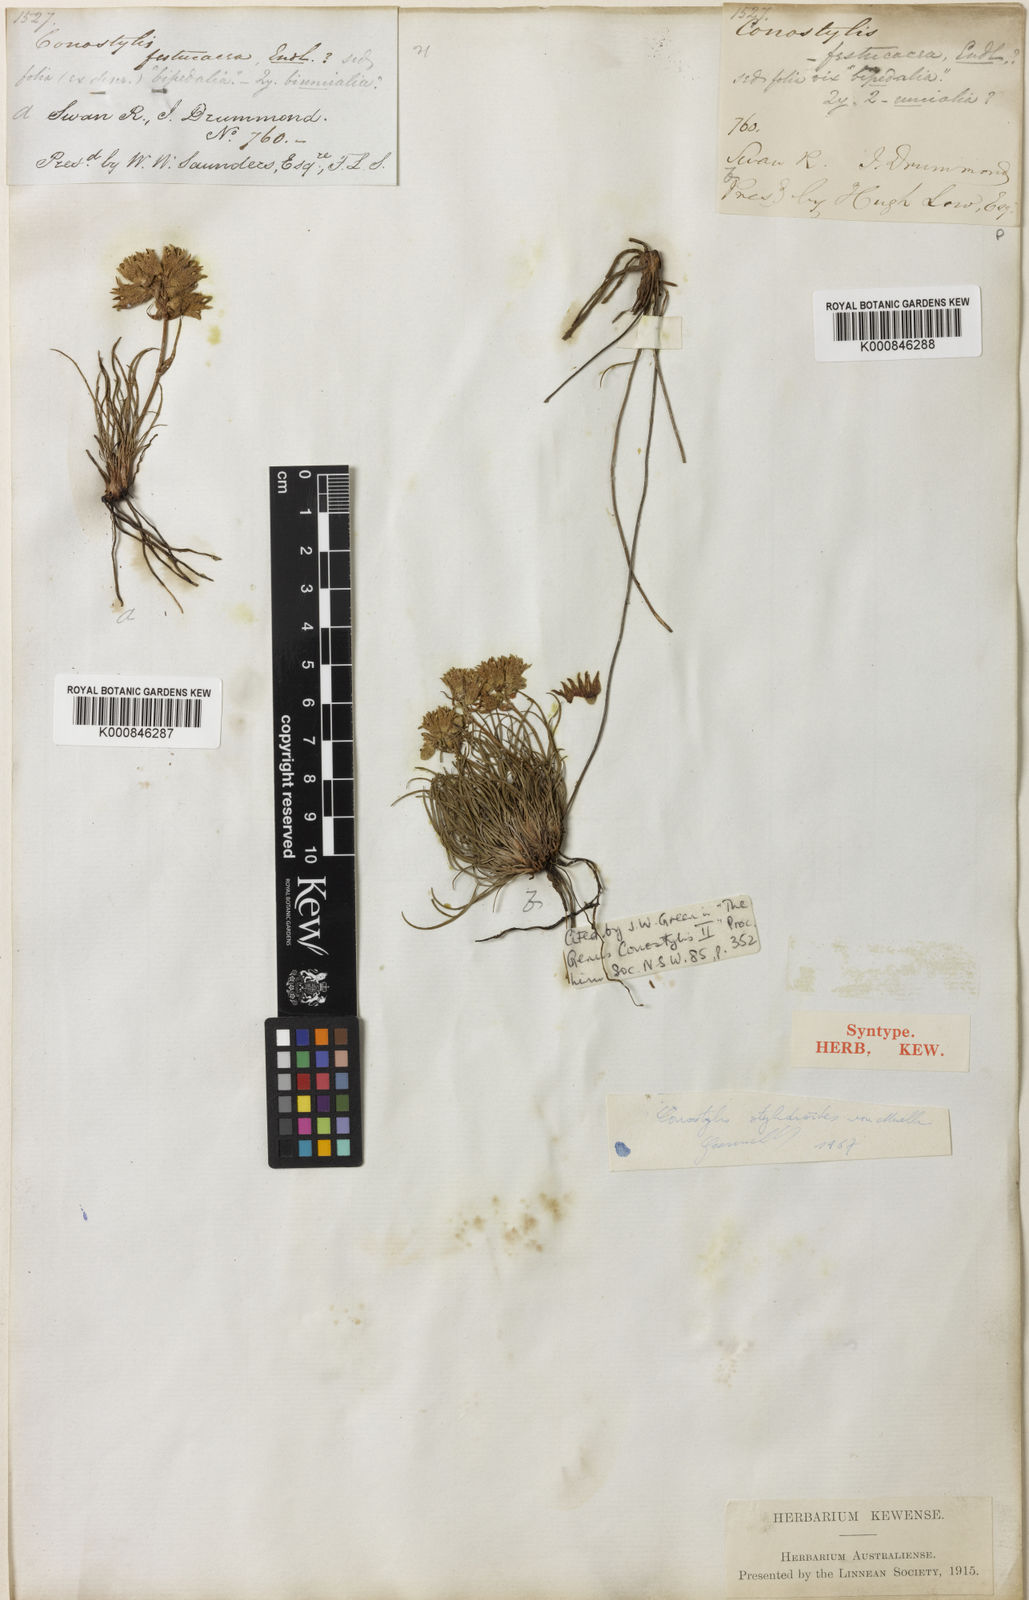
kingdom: Plantae
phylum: Tracheophyta
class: Liliopsida
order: Commelinales
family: Haemodoraceae
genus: Conostylis
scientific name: Conostylis stylidioides
